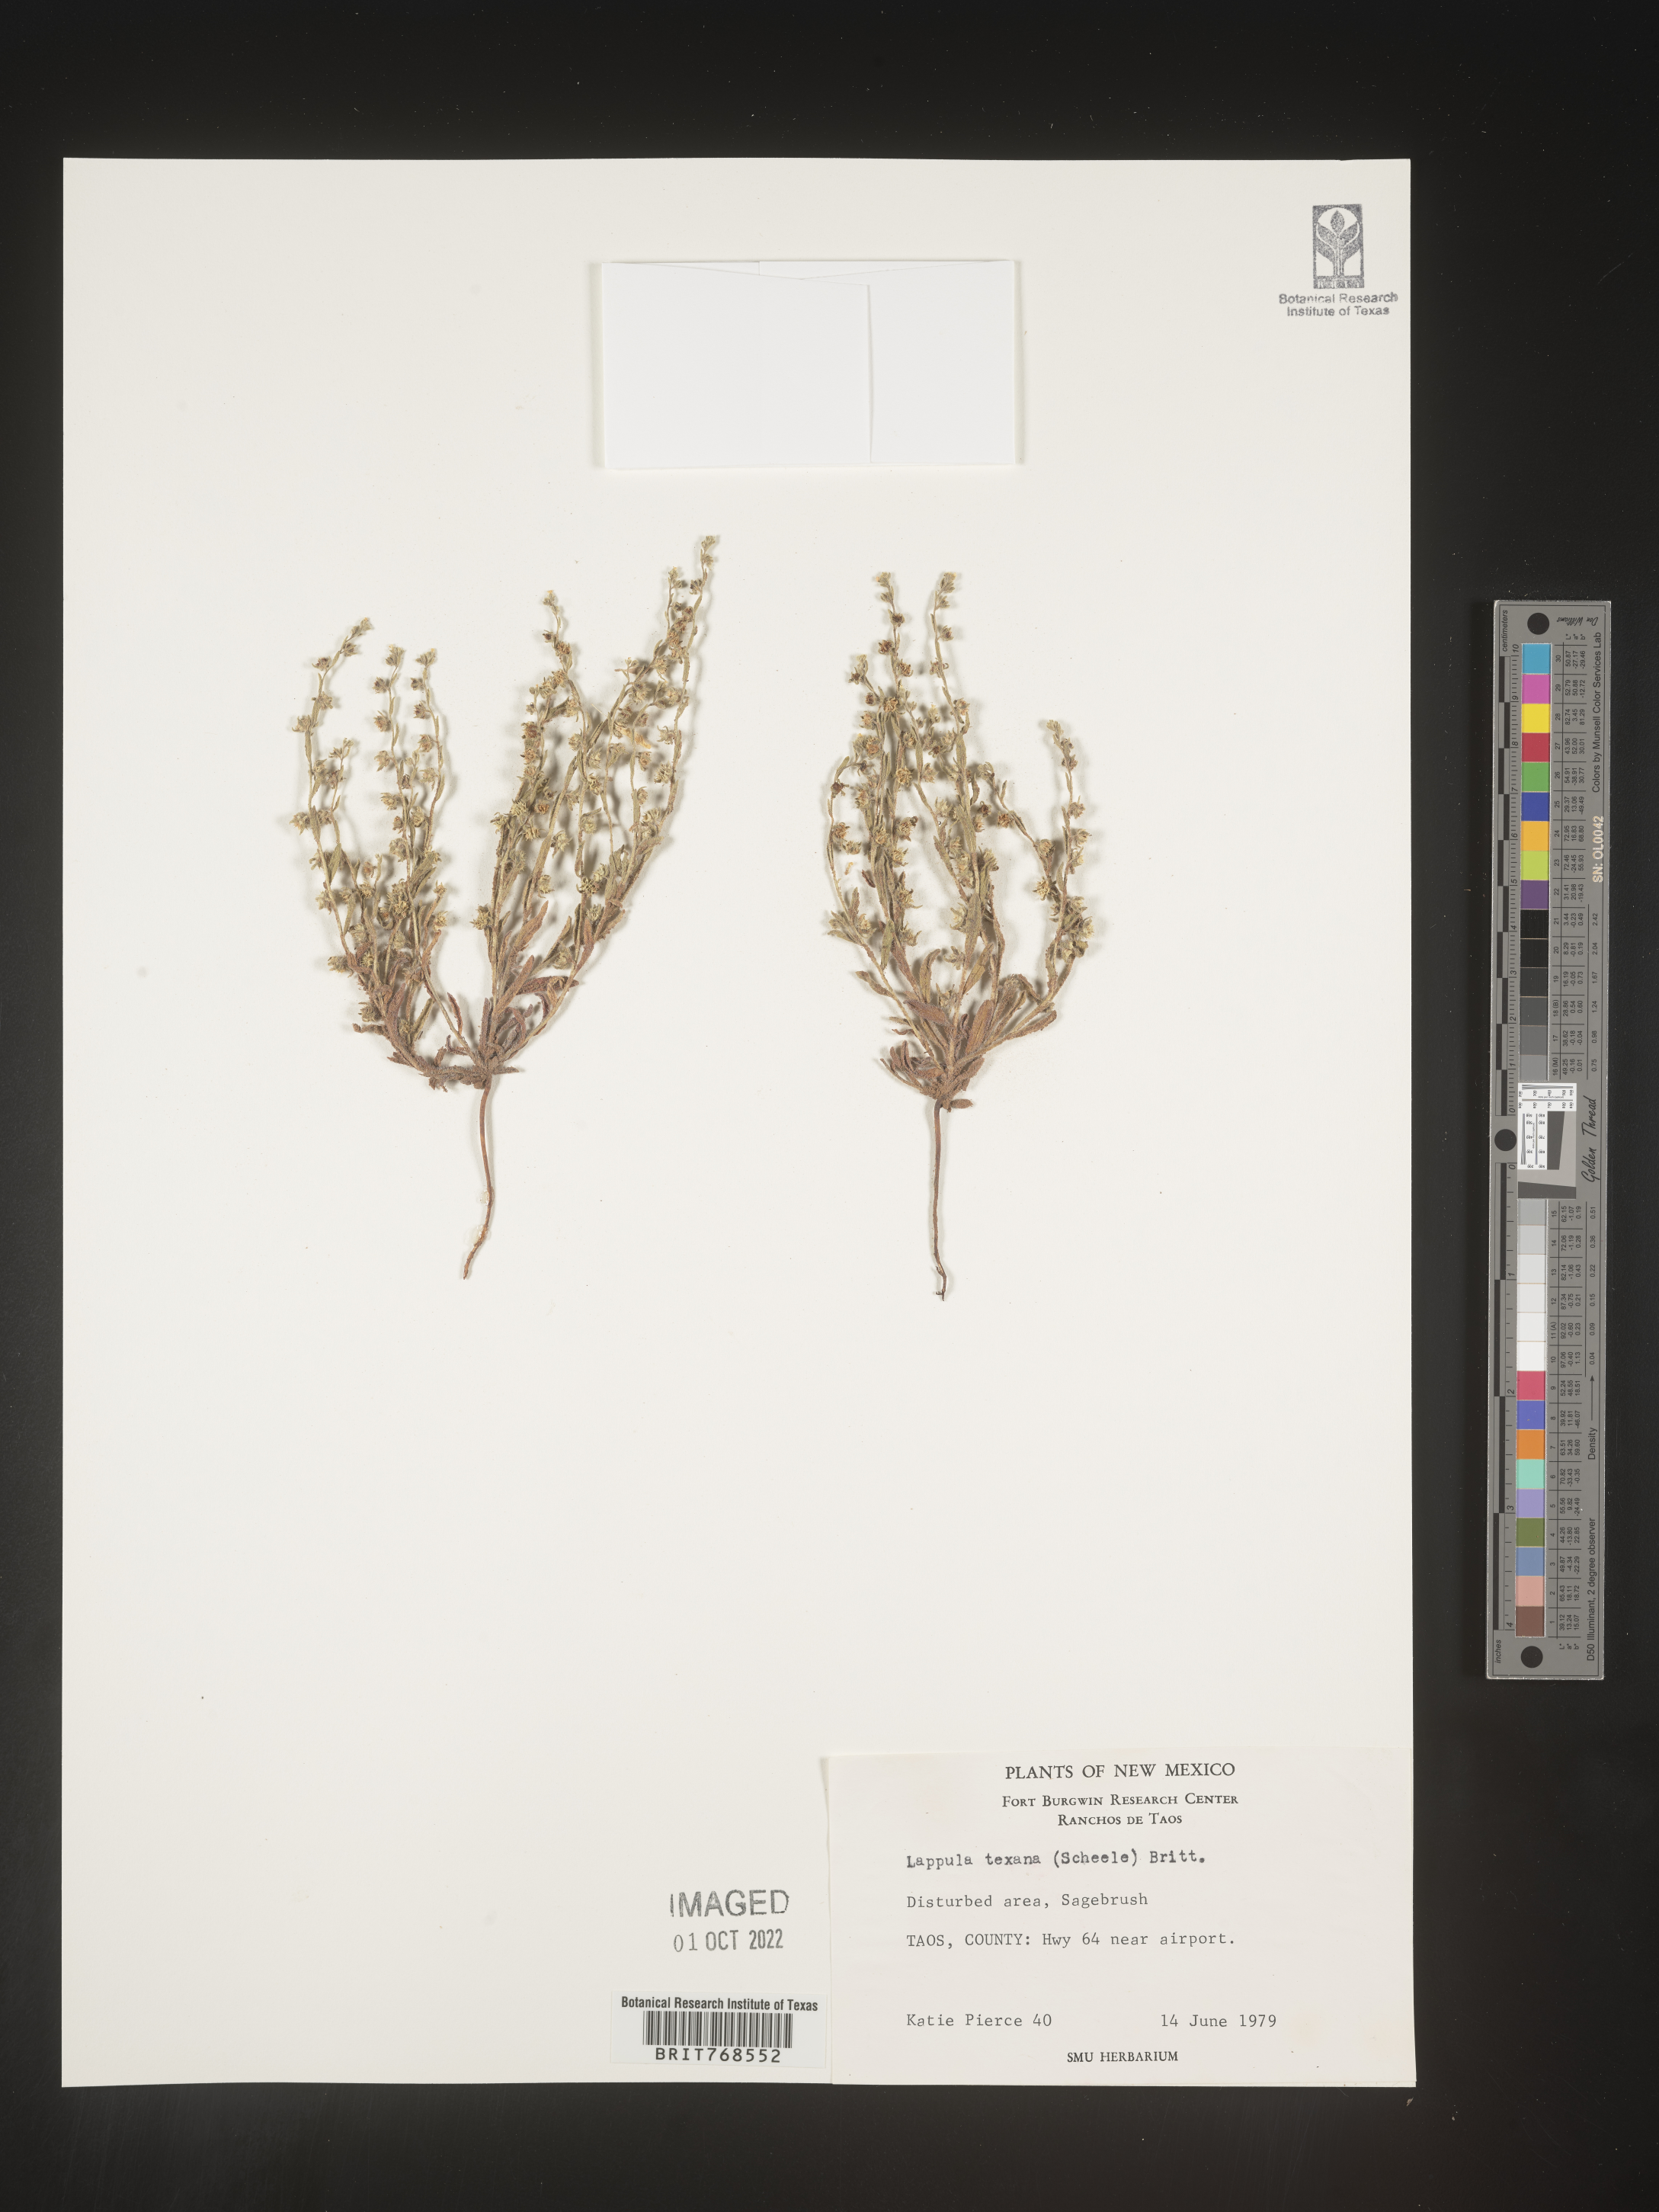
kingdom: Plantae
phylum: Tracheophyta
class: Magnoliopsida
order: Boraginales
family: Boraginaceae
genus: Lappula
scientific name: Lappula
